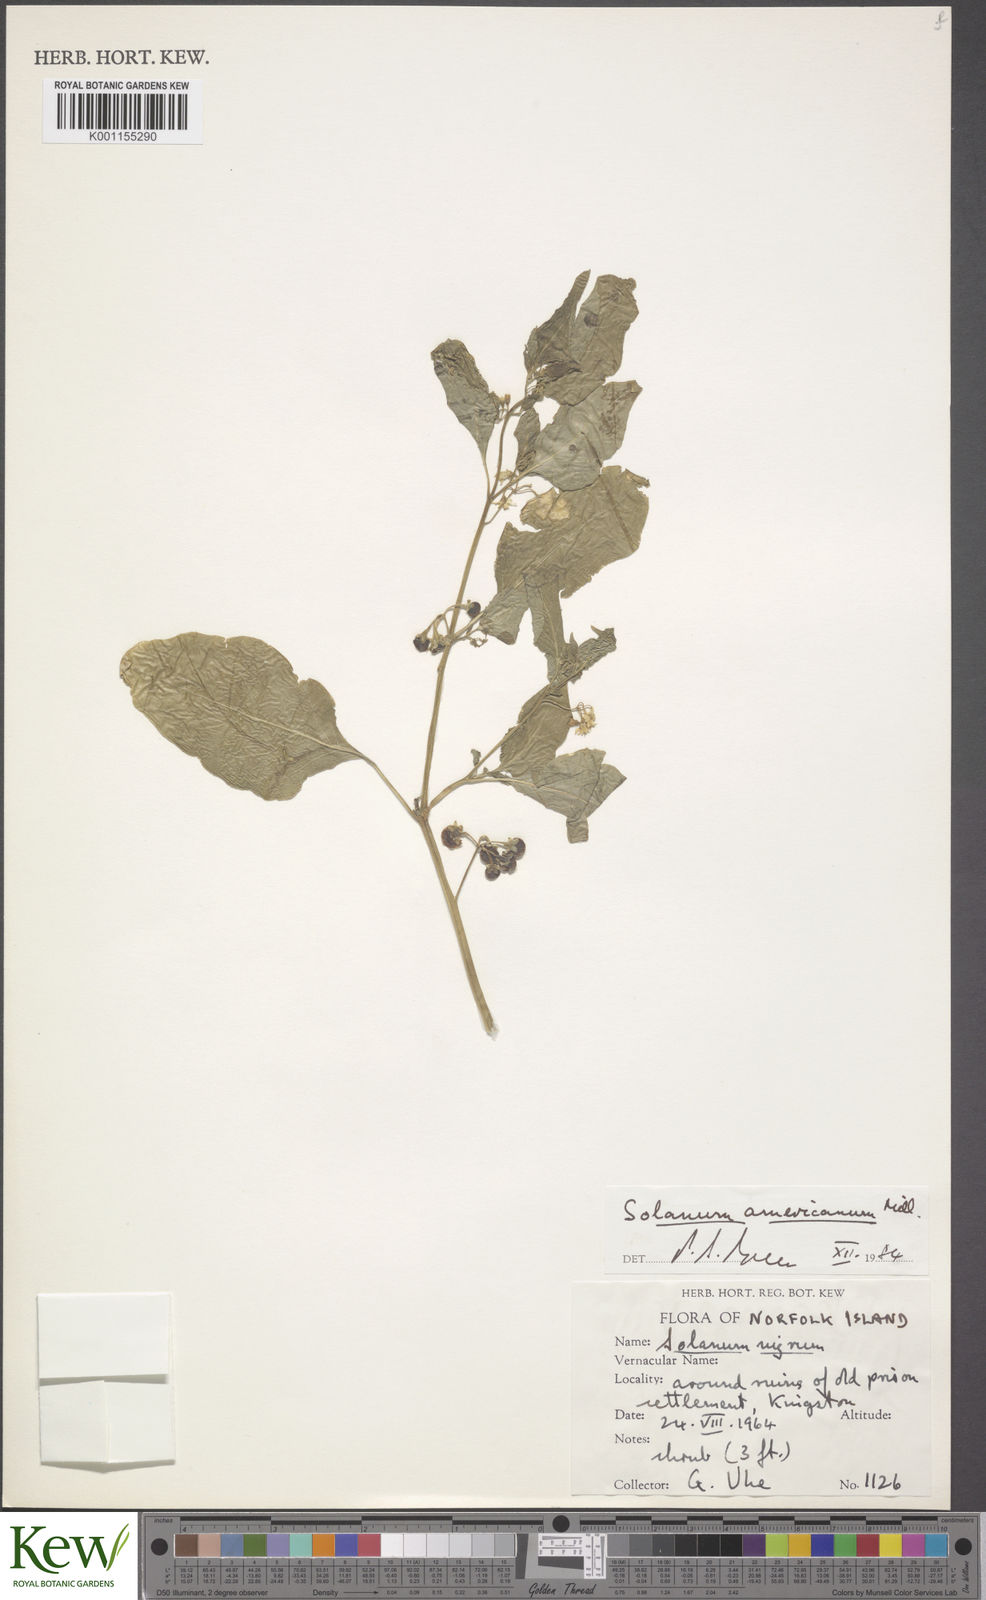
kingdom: Plantae
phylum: Tracheophyta
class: Magnoliopsida
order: Solanales
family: Solanaceae
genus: Solanum
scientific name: Solanum
